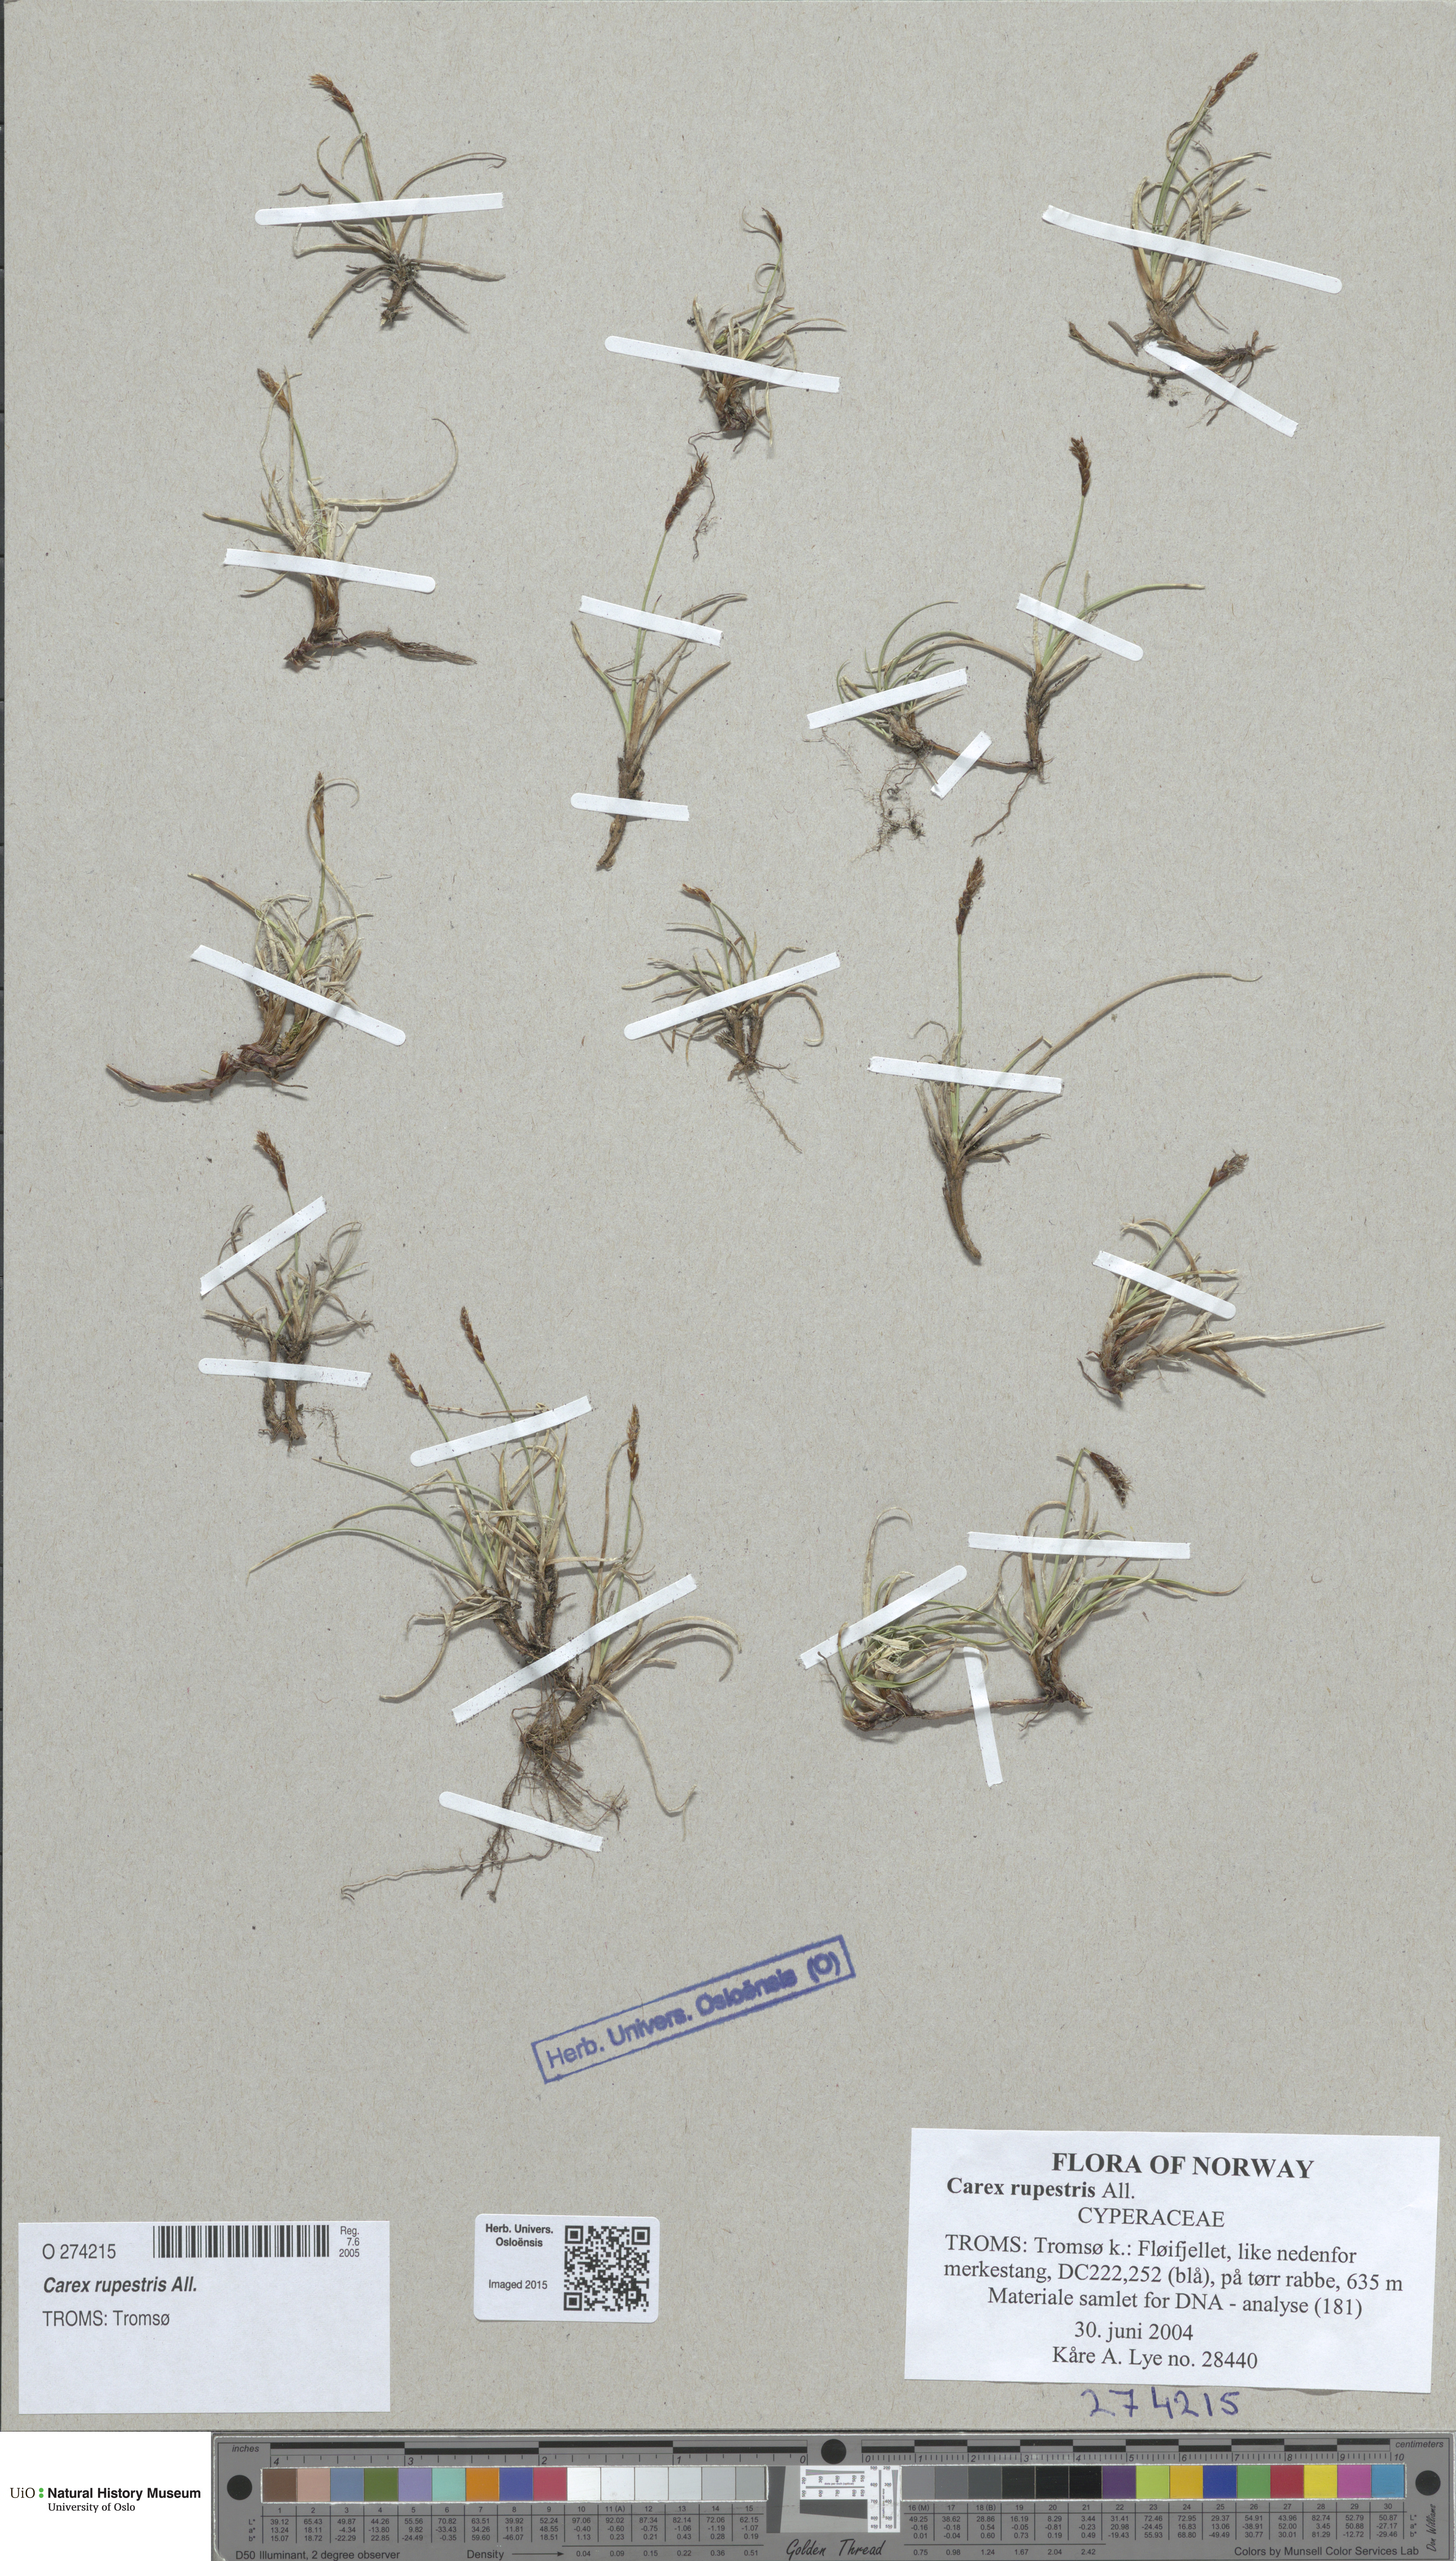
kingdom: Plantae
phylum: Tracheophyta
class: Liliopsida
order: Poales
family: Cyperaceae
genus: Carex
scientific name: Carex rupestris
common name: Rock sedge
